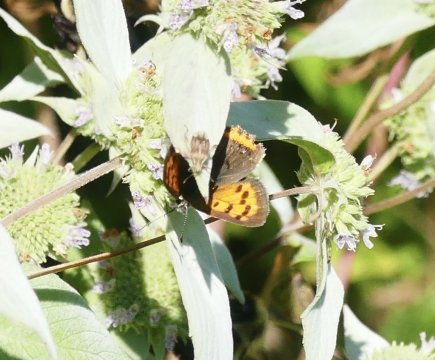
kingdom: Animalia
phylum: Arthropoda
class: Insecta
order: Lepidoptera
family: Lycaenidae
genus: Lycaena
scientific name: Lycaena phlaeas
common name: American Copper
